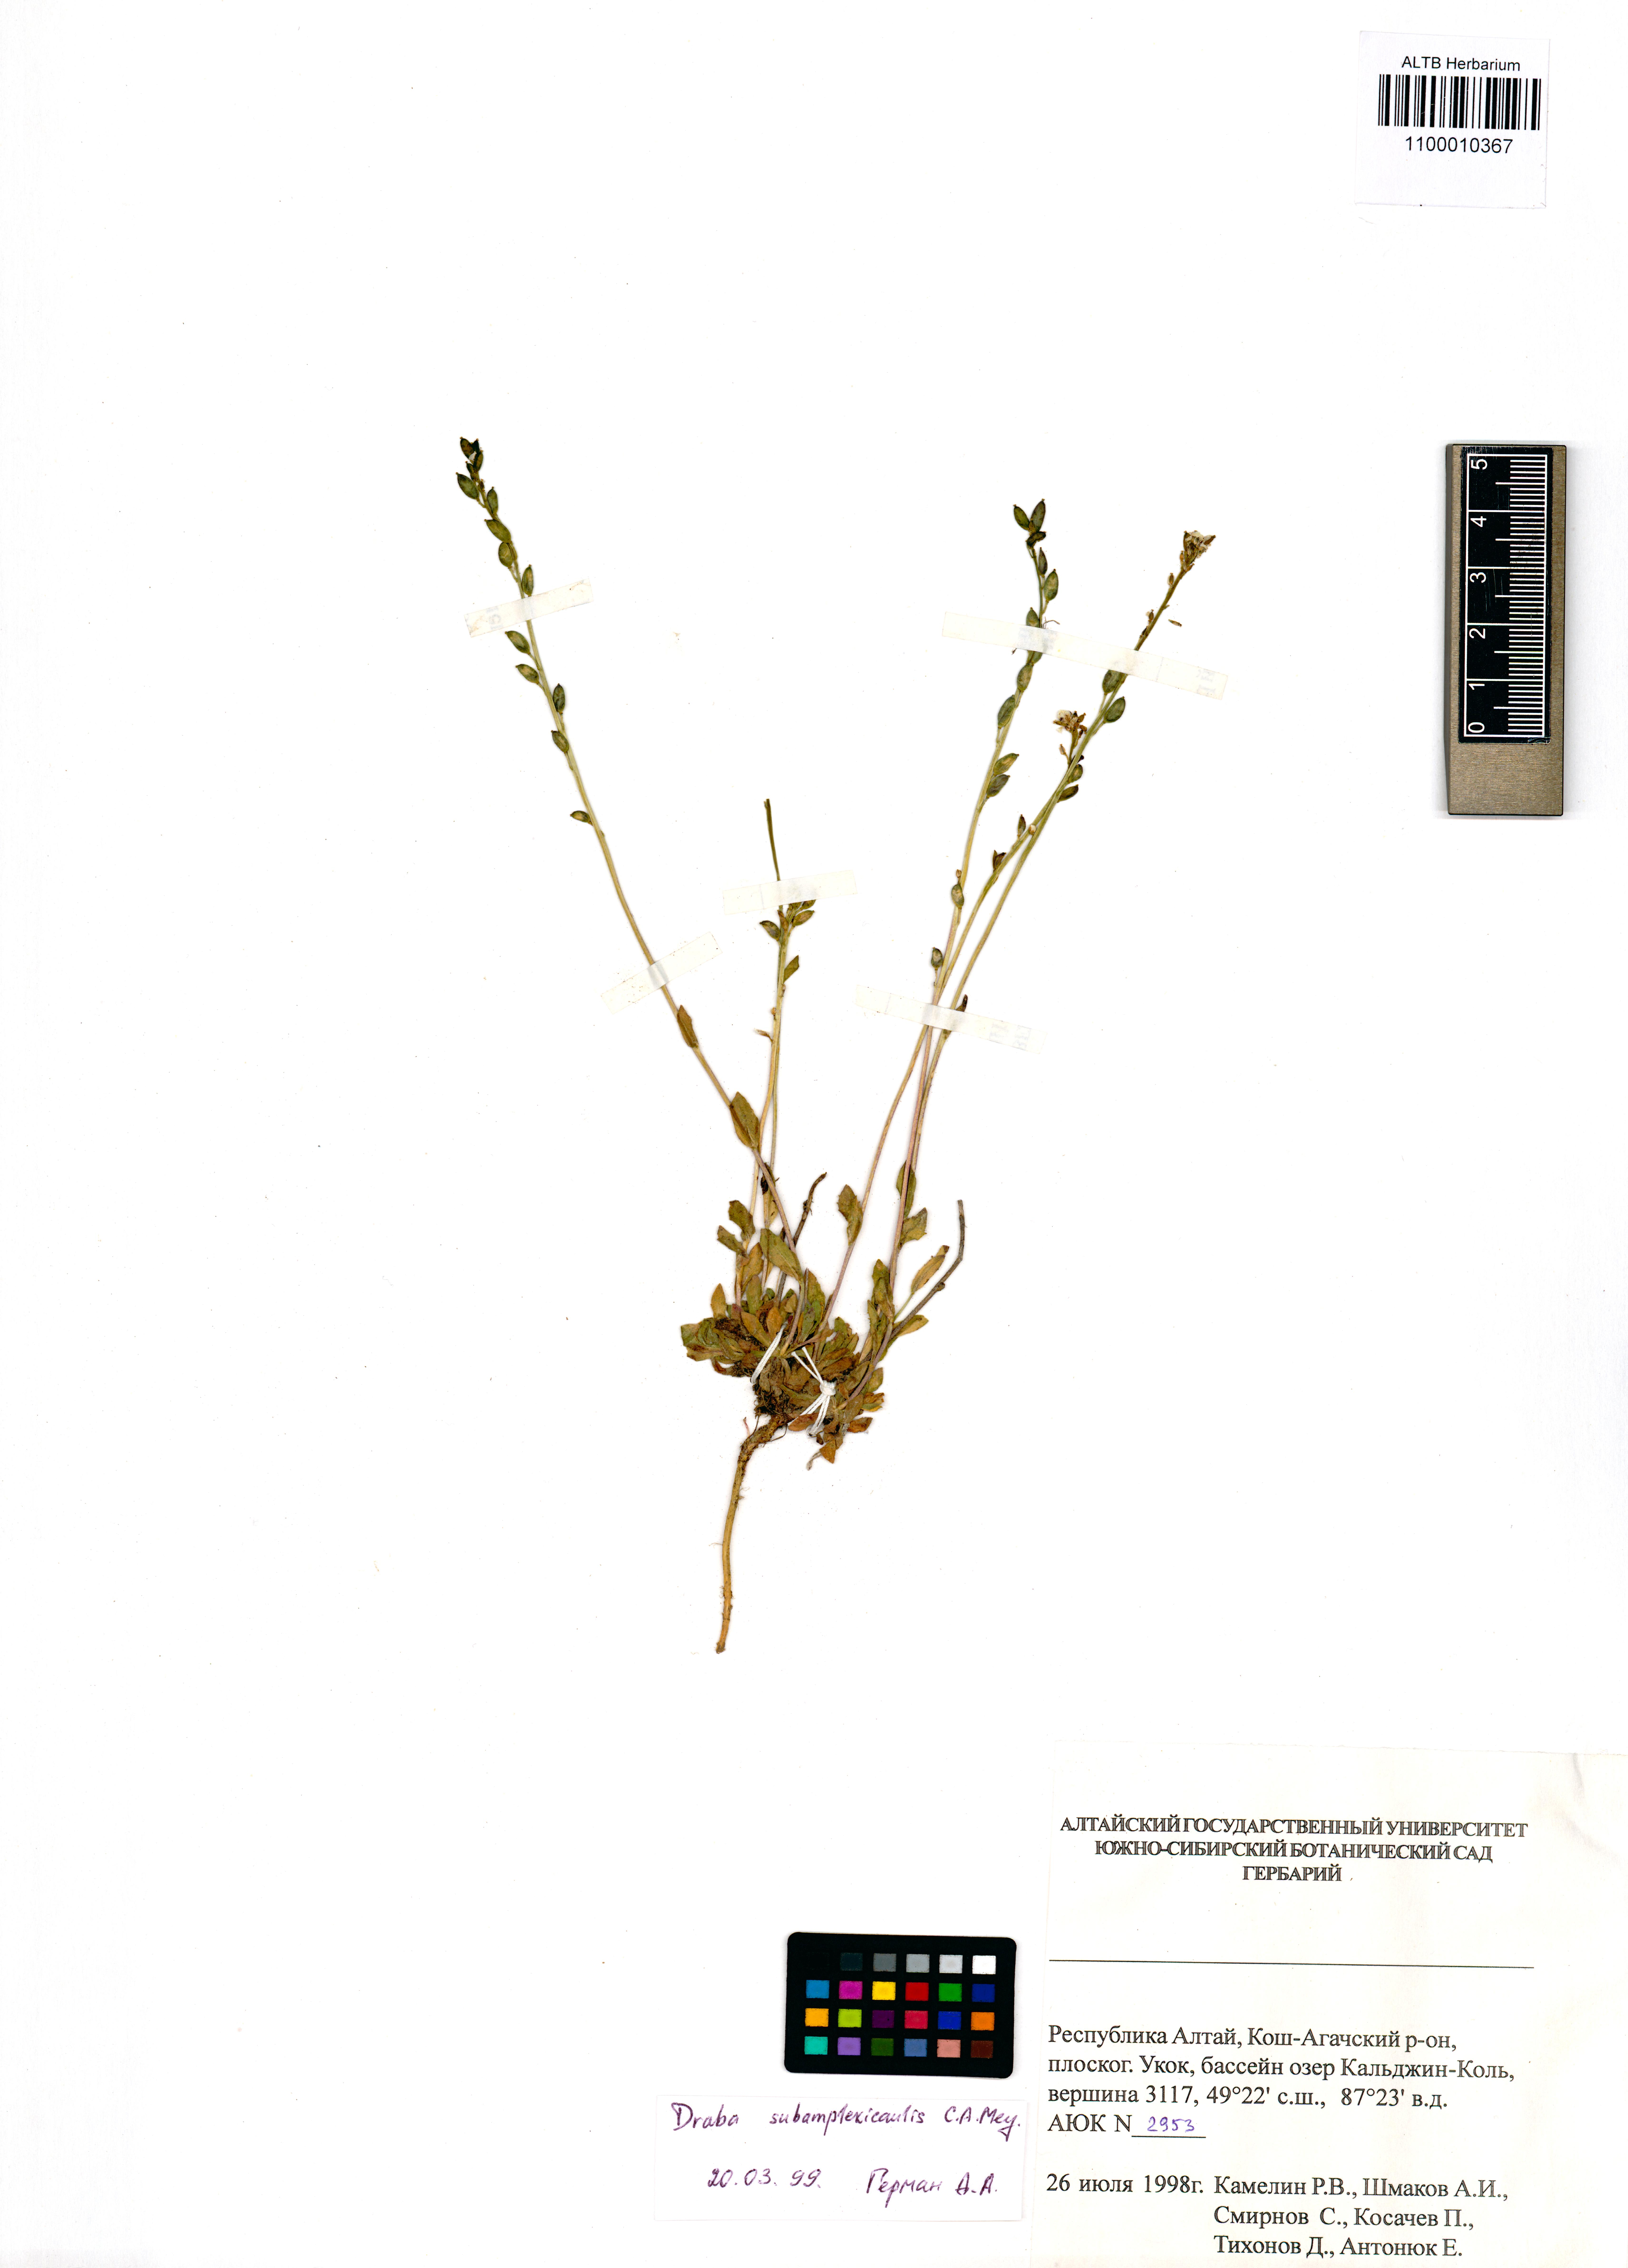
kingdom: Plantae
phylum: Tracheophyta
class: Magnoliopsida
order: Brassicales
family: Brassicaceae
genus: Draba
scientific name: Draba subamplexicaulis
